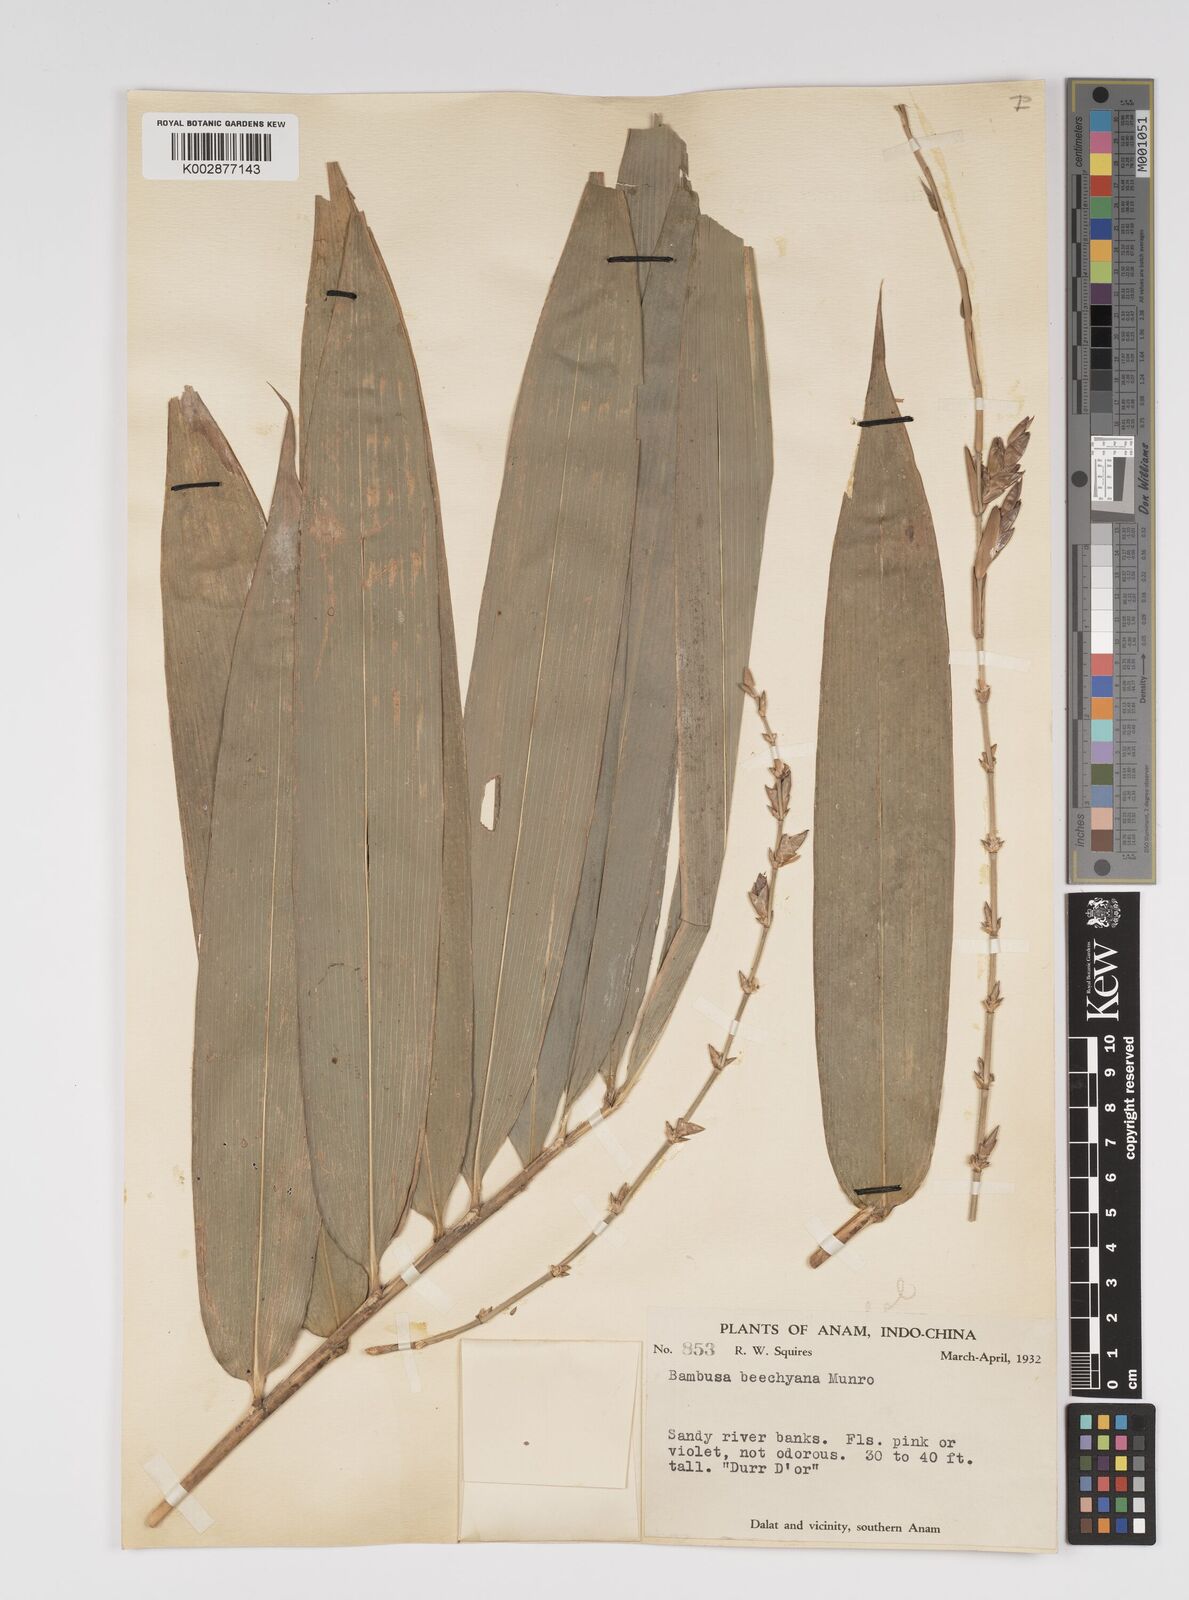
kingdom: Plantae
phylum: Tracheophyta
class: Liliopsida
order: Poales
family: Poaceae
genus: Bambusa
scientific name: Bambusa beecheyana
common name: Beechey's bamboo
